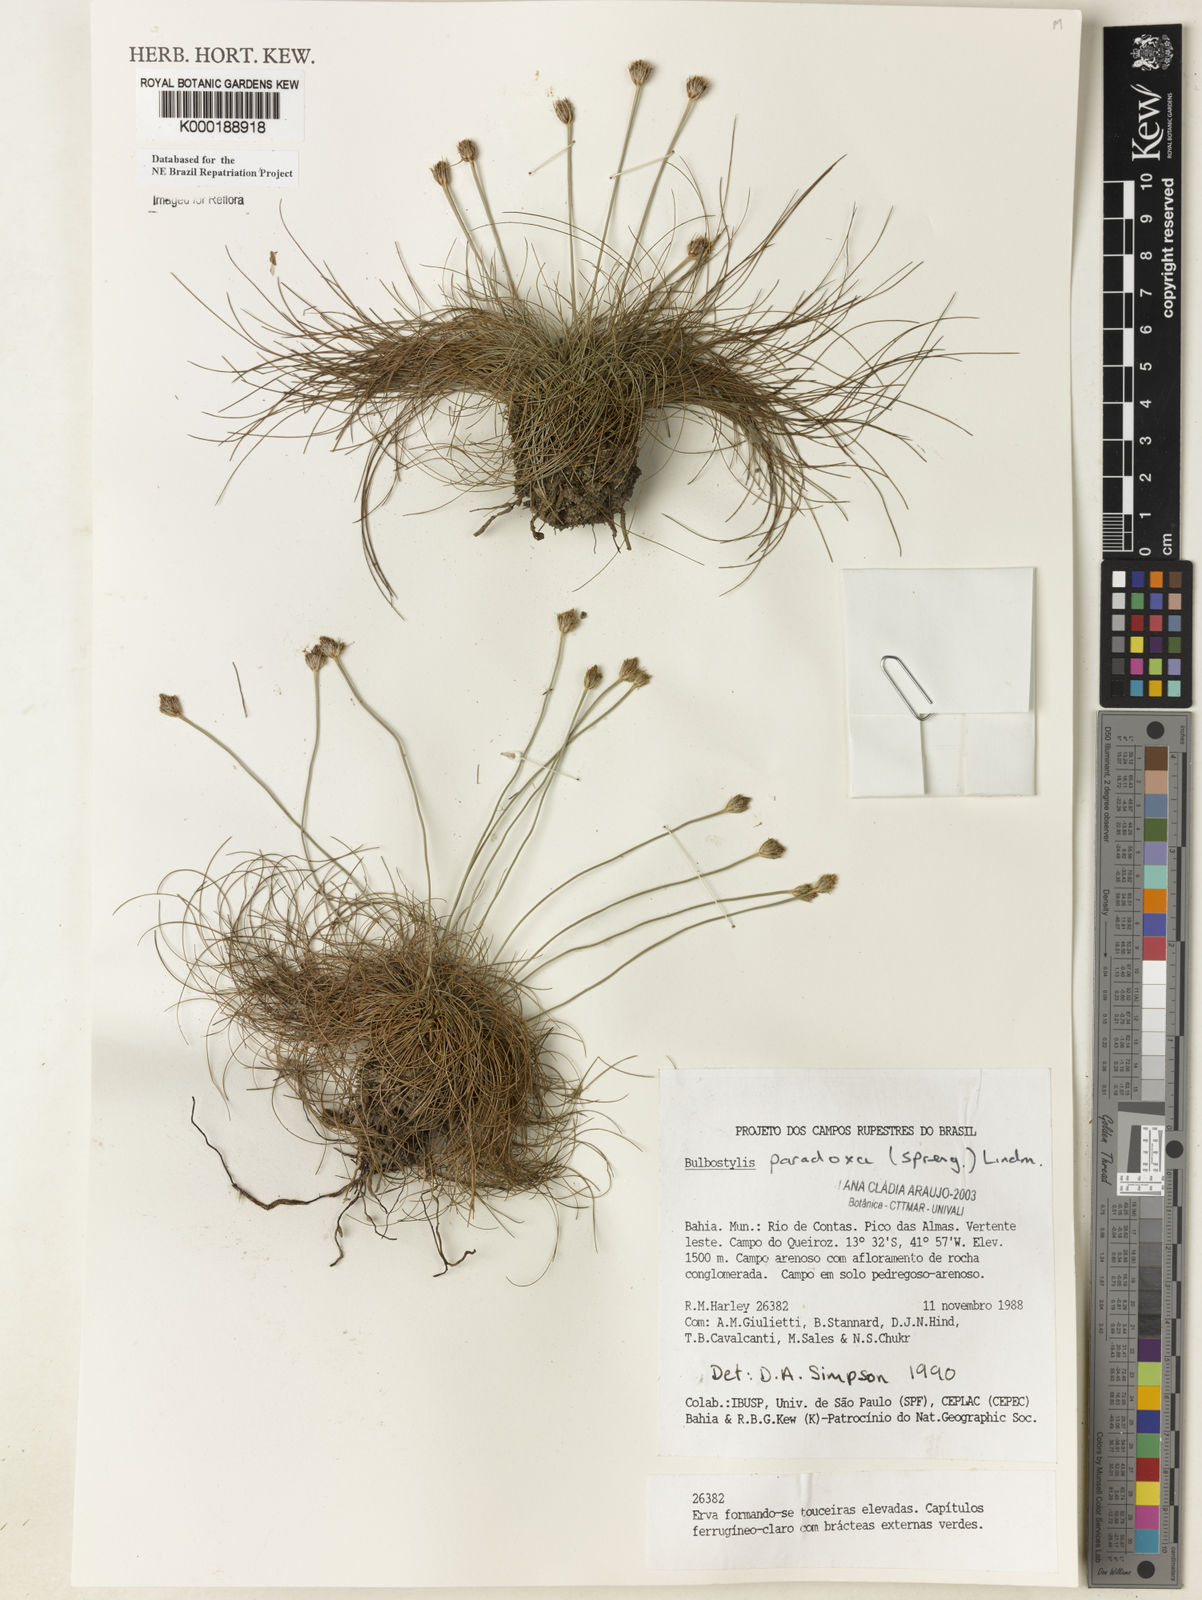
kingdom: Plantae
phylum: Tracheophyta
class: Liliopsida
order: Poales
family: Cyperaceae
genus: Bulbostylis
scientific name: Bulbostylis paradoxa
